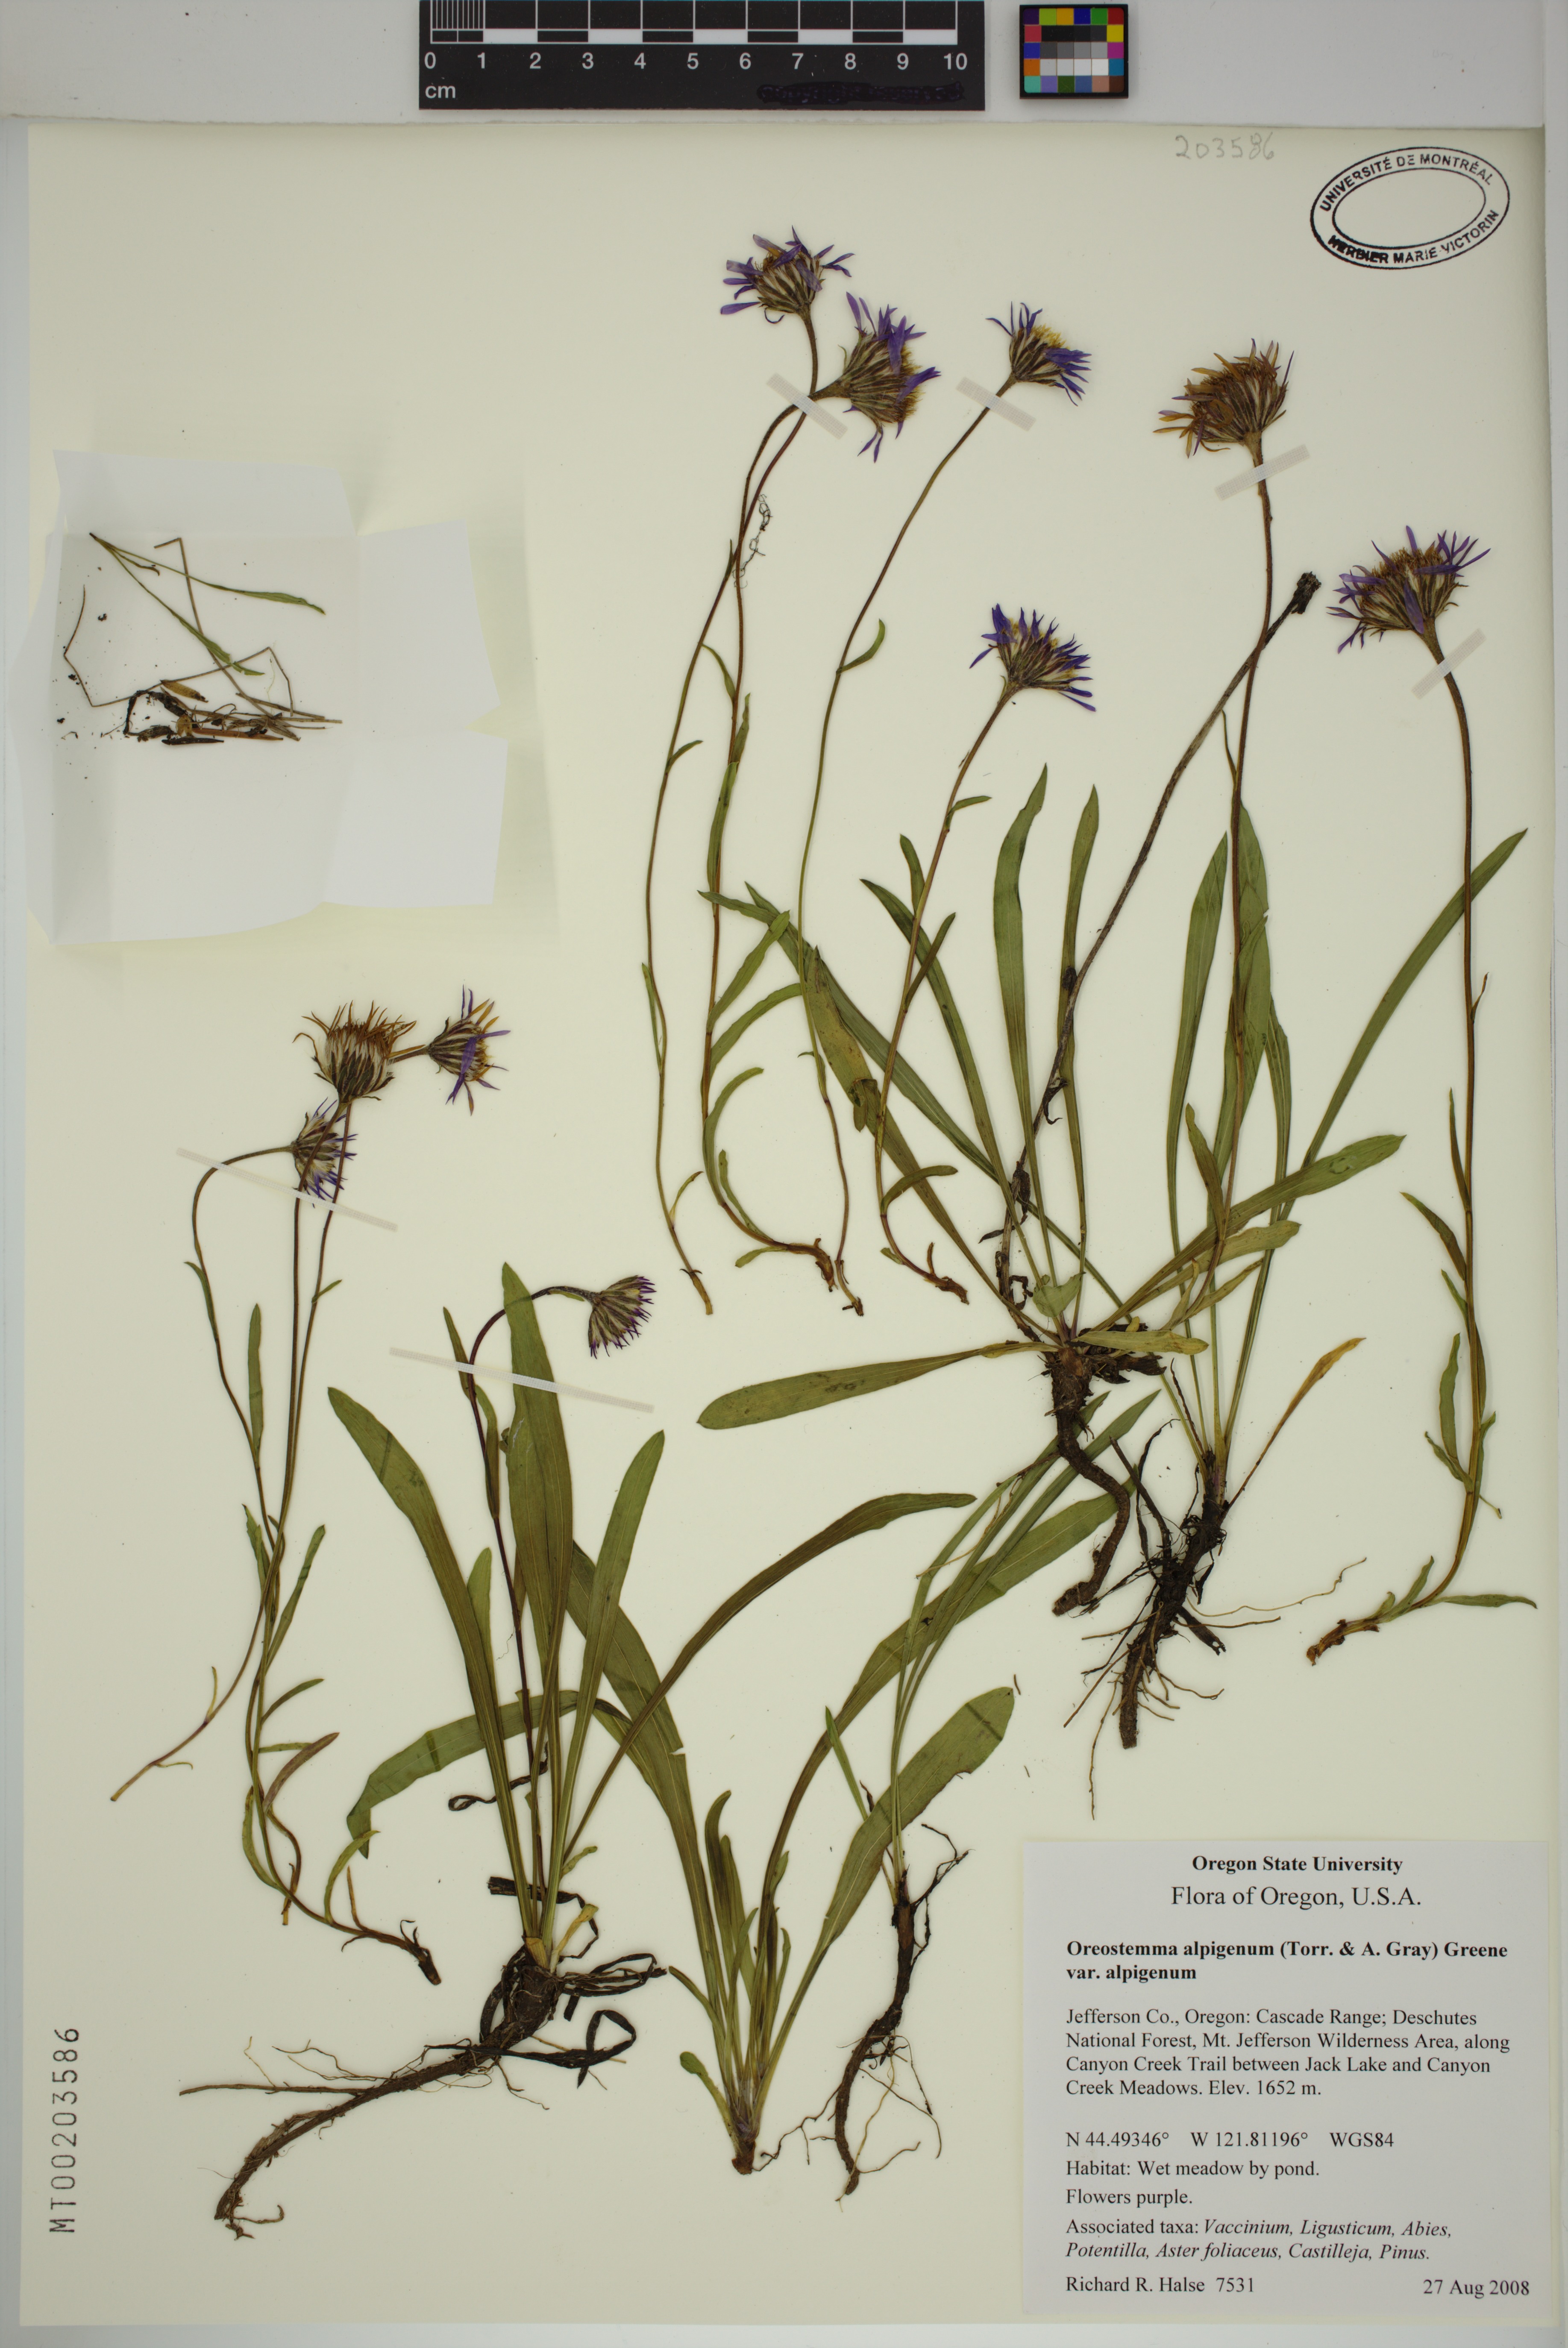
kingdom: Plantae
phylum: Tracheophyta
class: Magnoliopsida
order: Asterales
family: Asteraceae
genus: Oreostemma
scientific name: Oreostemma alpigenum
